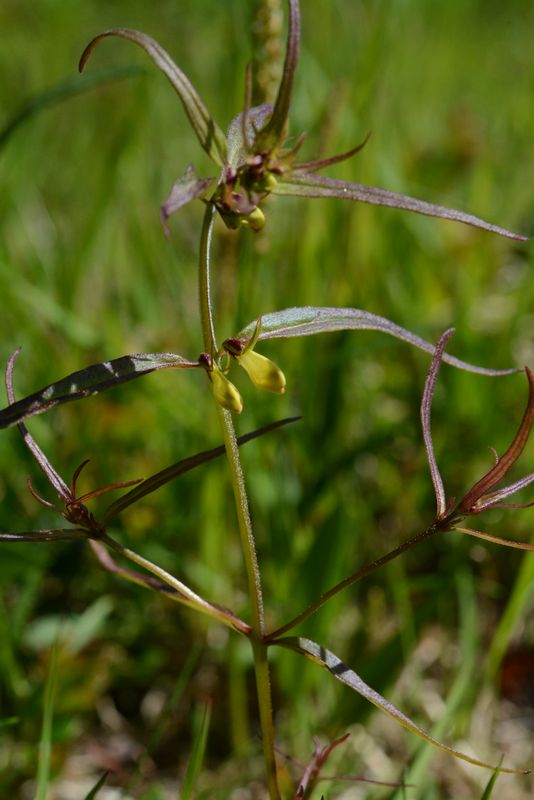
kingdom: Plantae
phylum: Tracheophyta
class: Magnoliopsida
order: Lamiales
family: Orobanchaceae
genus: Melampyrum
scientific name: Melampyrum pratense
